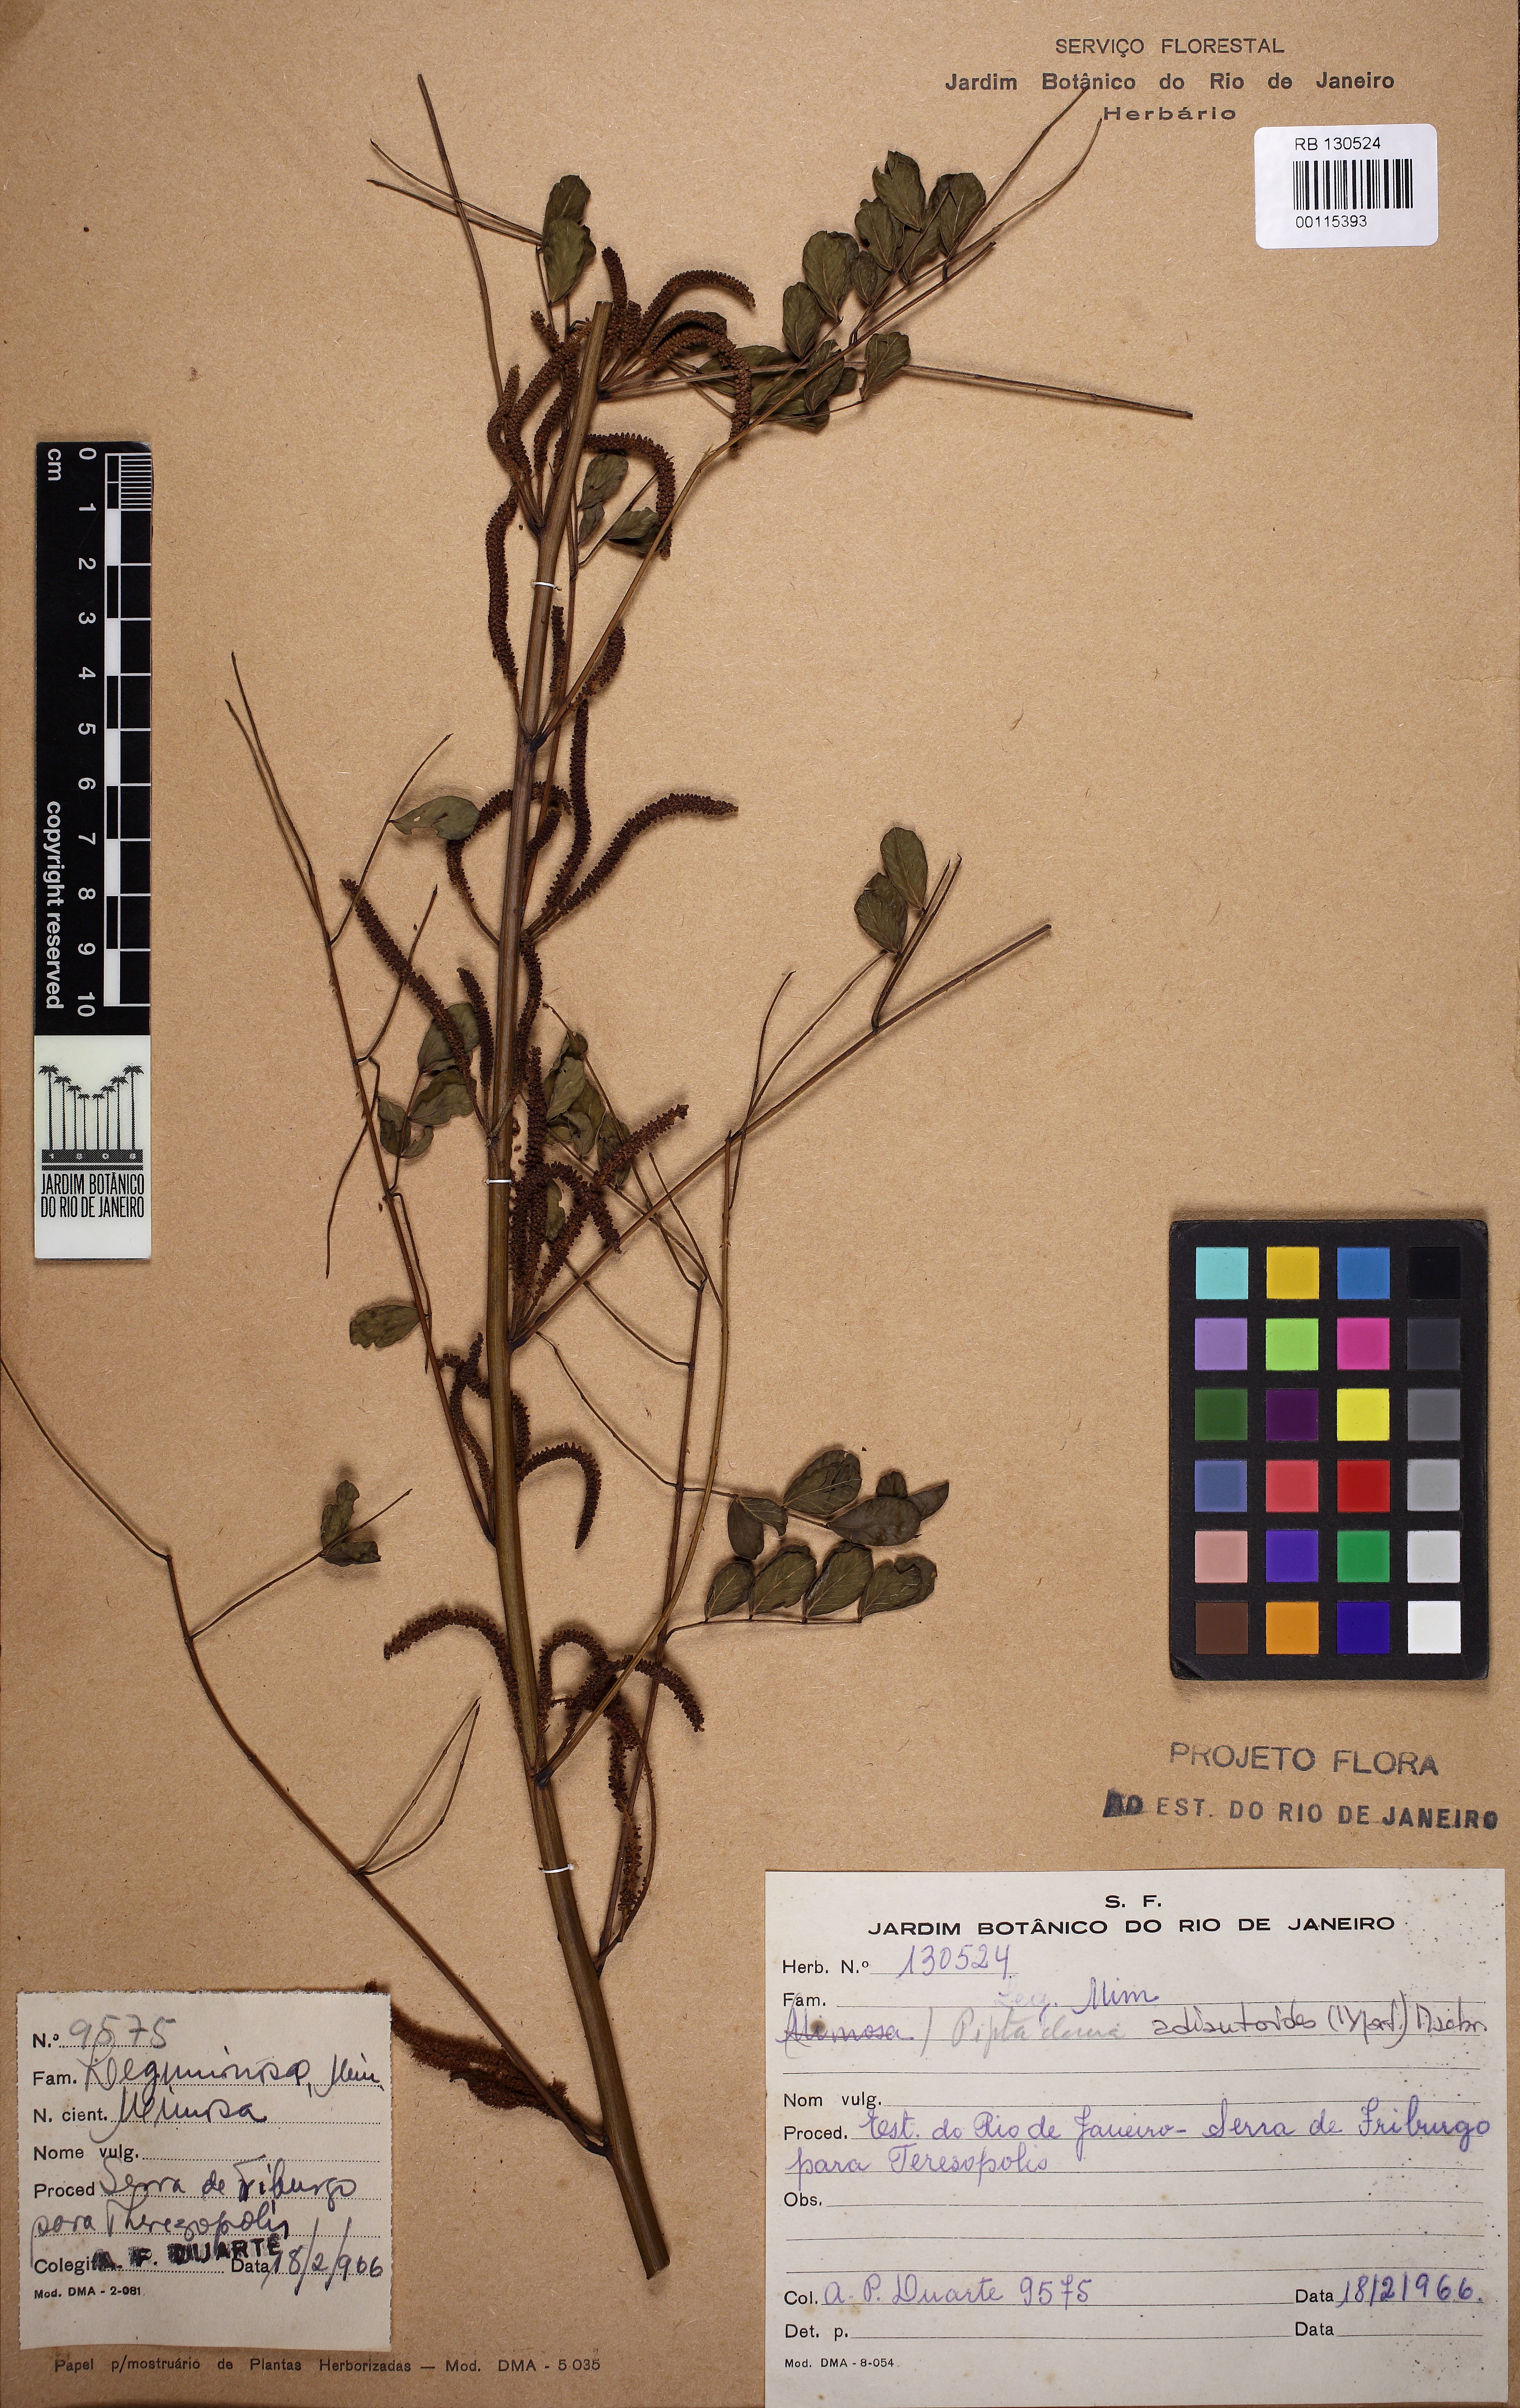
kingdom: Plantae
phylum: Tracheophyta
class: Magnoliopsida
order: Fabales
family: Fabaceae
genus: Piptadenia
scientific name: Piptadenia adiantoides
